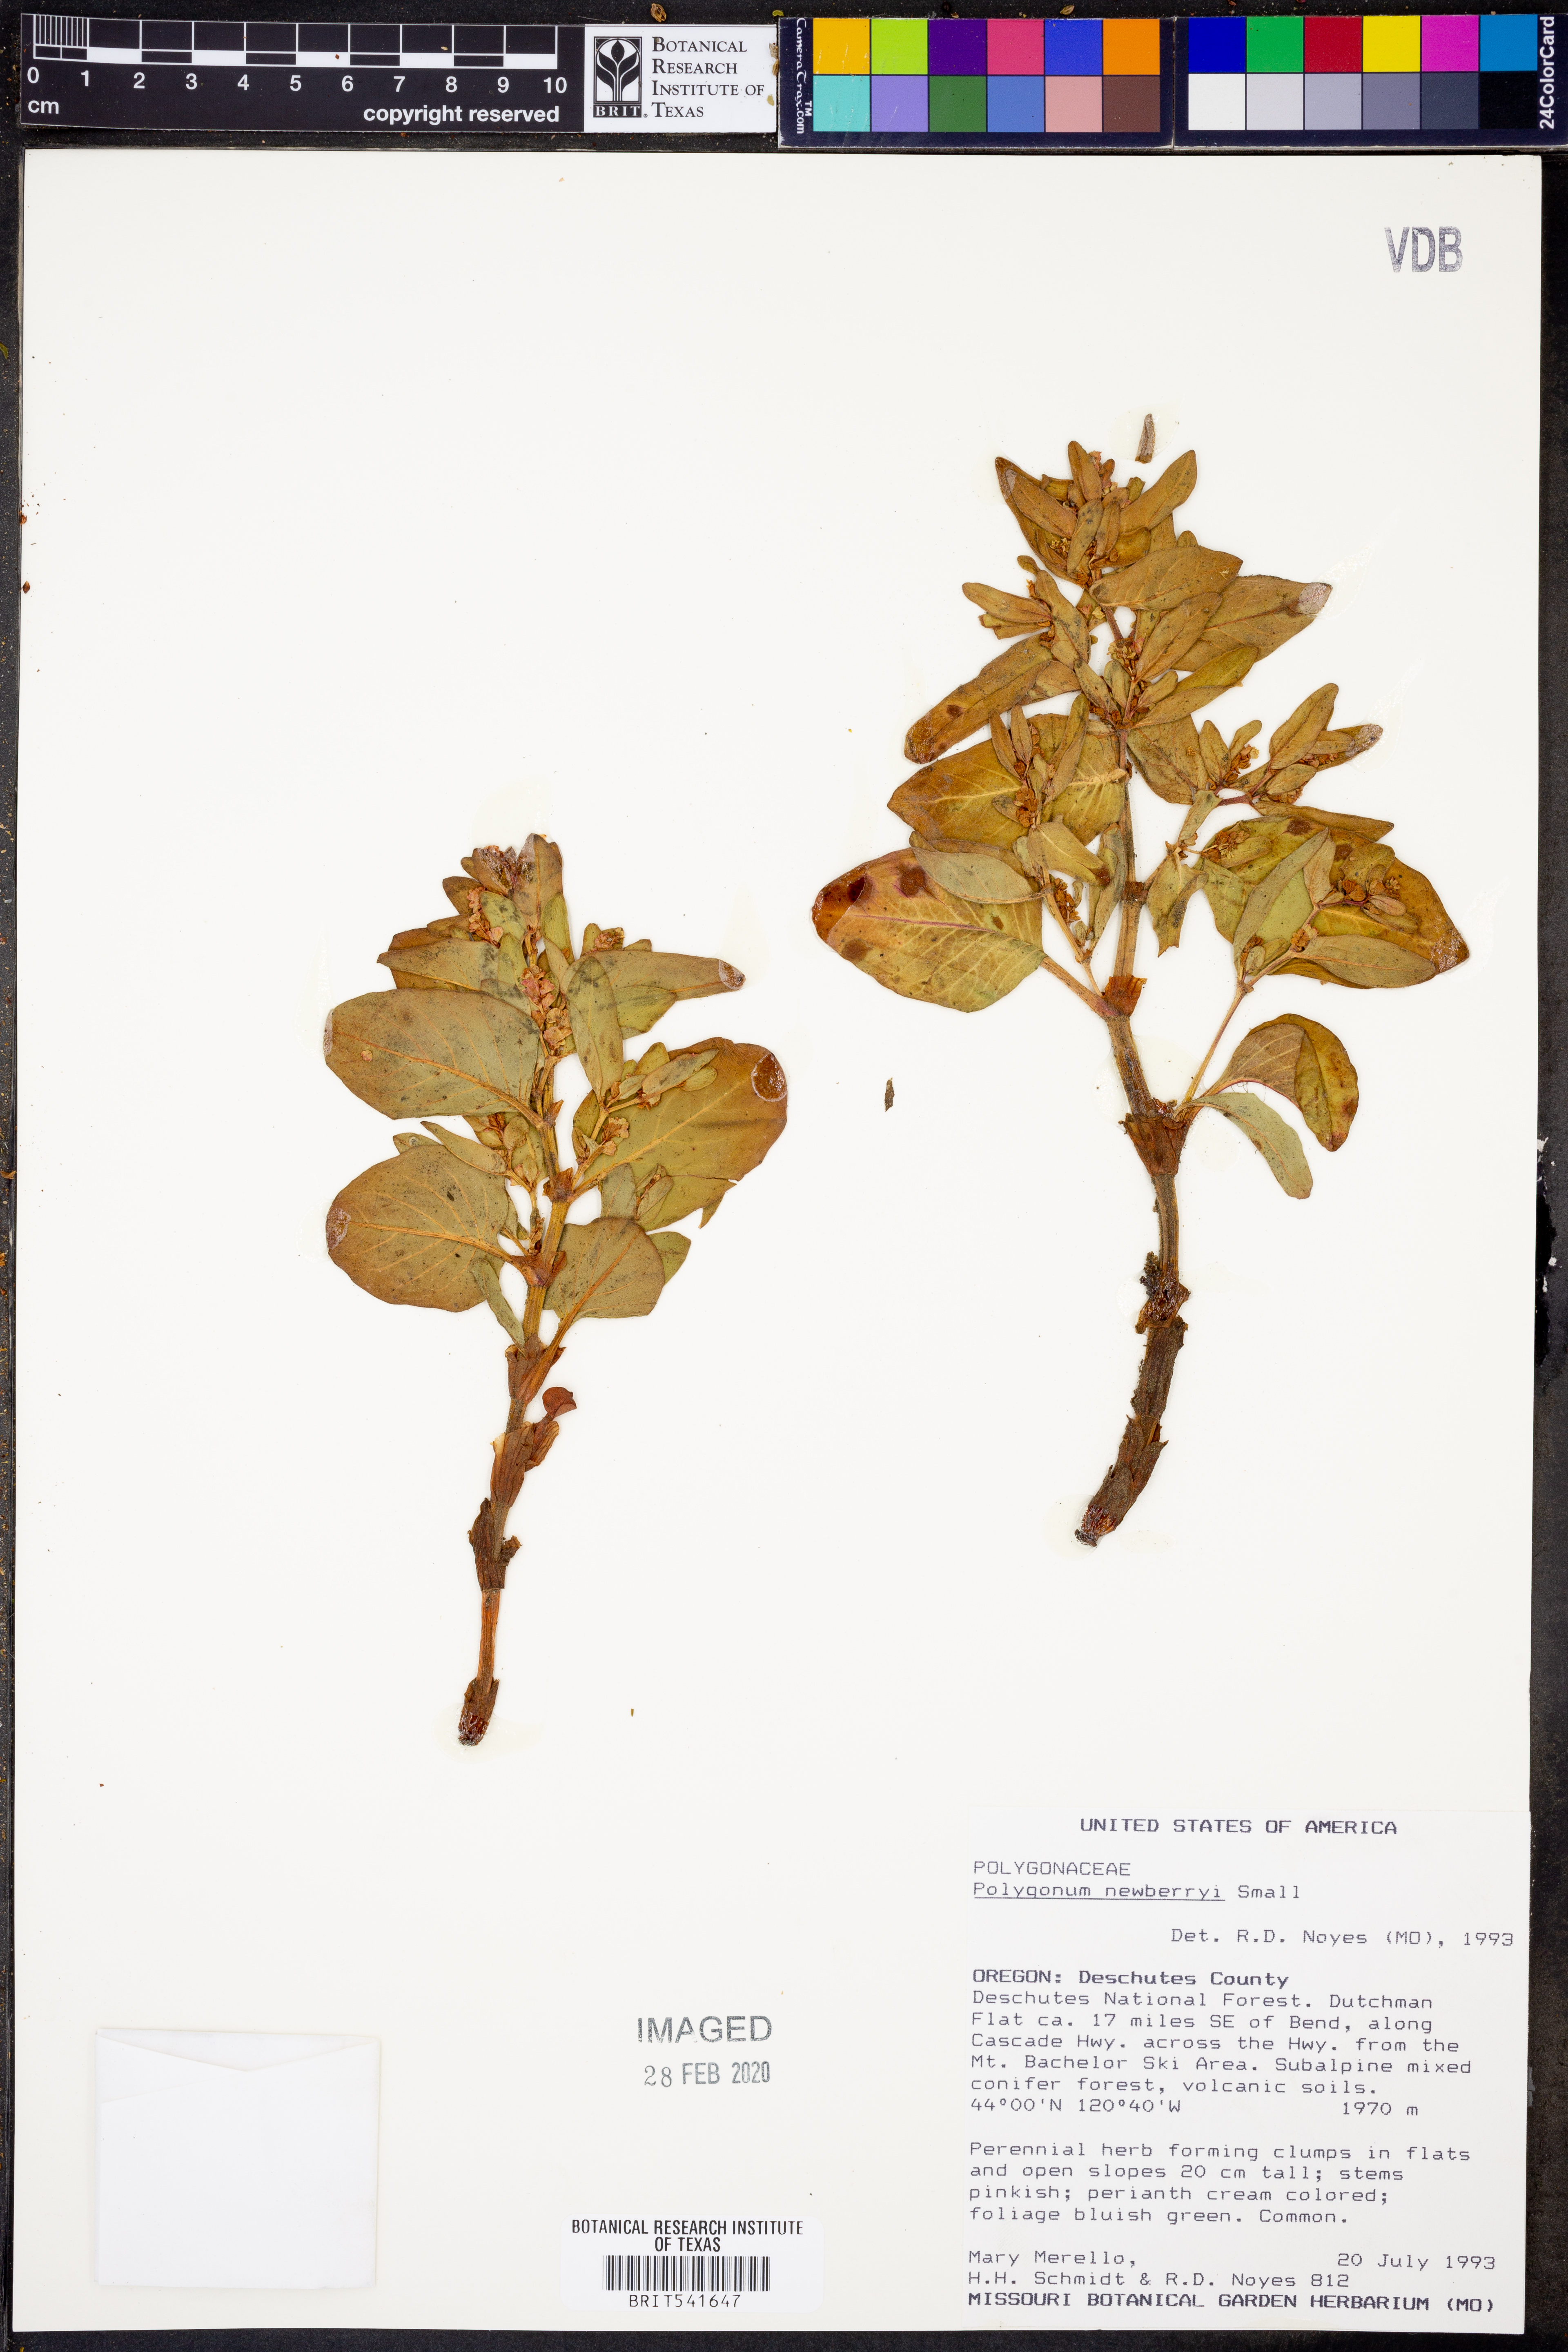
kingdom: Plantae
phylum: Tracheophyta
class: Magnoliopsida
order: Caryophyllales
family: Polygonaceae
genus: Koenigia
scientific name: Koenigia davisiae
